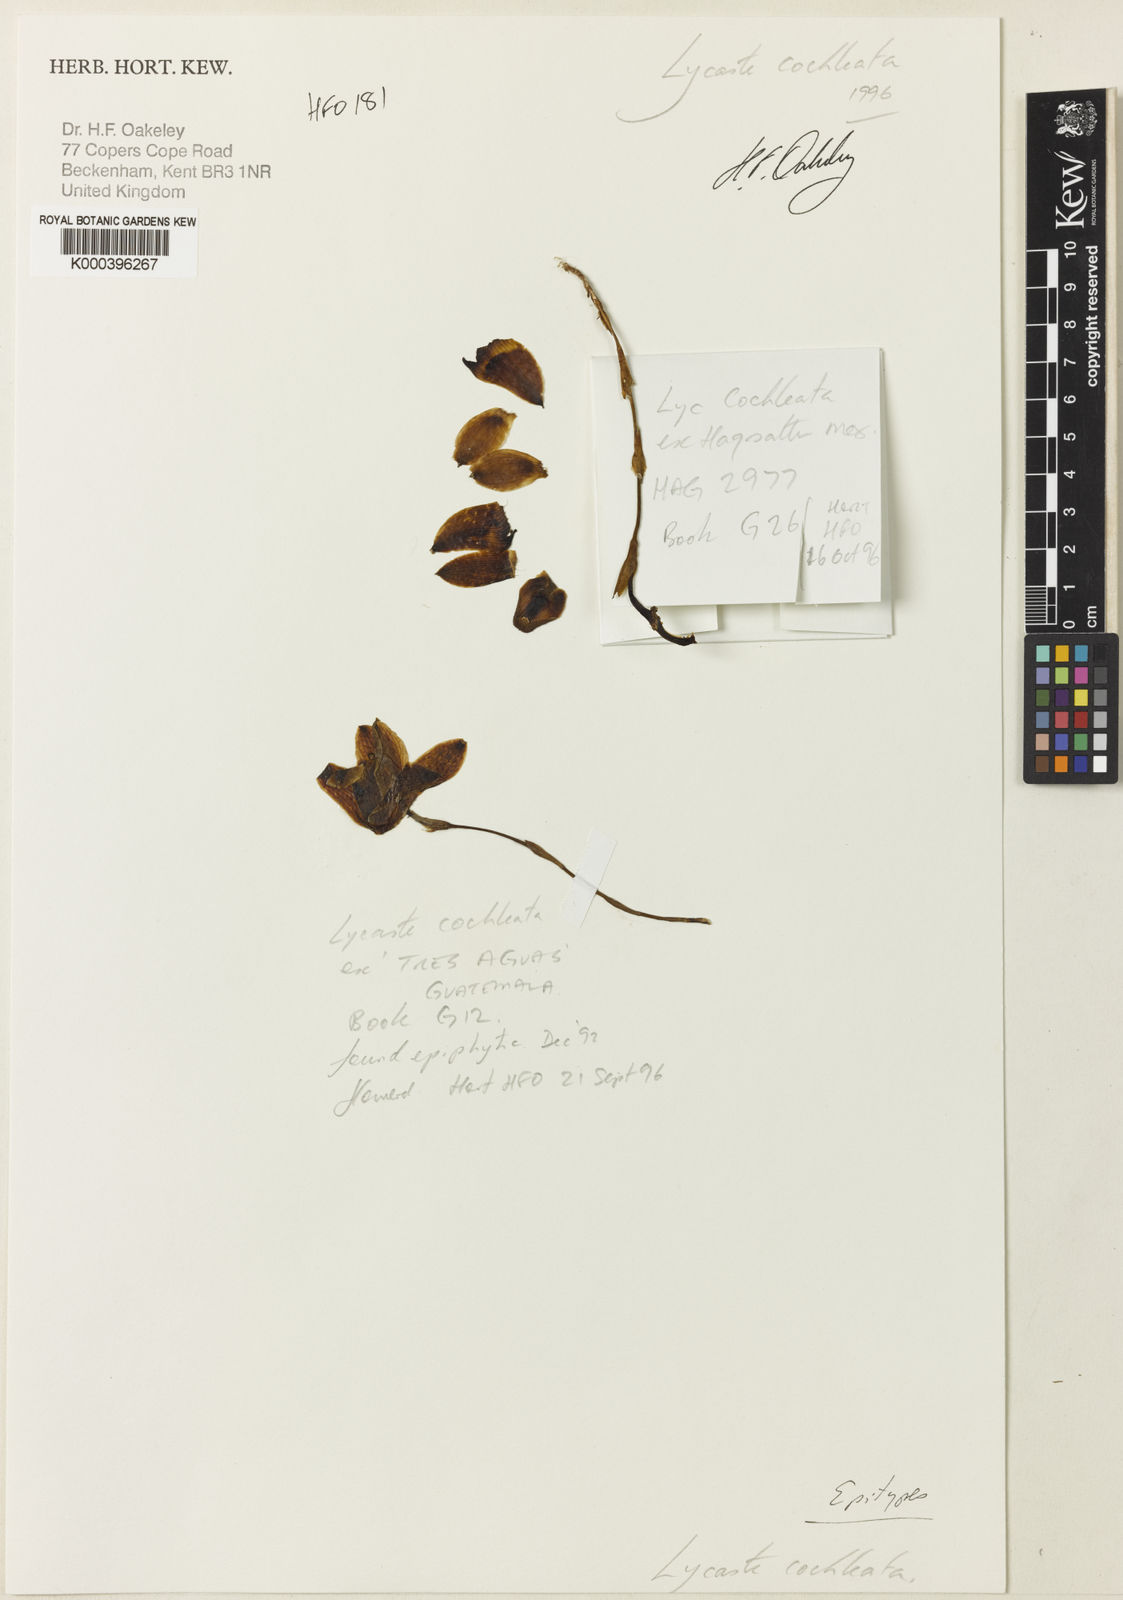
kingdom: Plantae
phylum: Tracheophyta
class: Liliopsida
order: Asparagales
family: Orchidaceae
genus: Lycaste
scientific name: Lycaste cochleata
